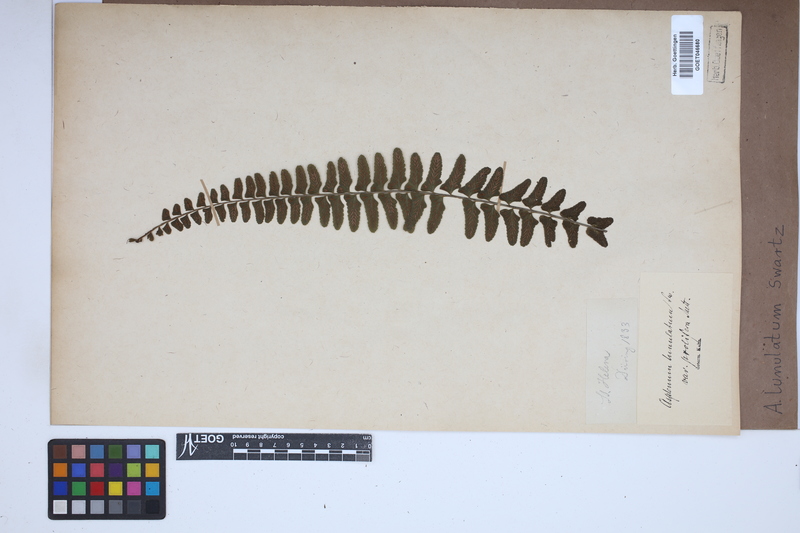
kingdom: Plantae
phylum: Tracheophyta
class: Polypodiopsida
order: Polypodiales
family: Aspleniaceae
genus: Asplenium
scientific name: Asplenium lunulatum
